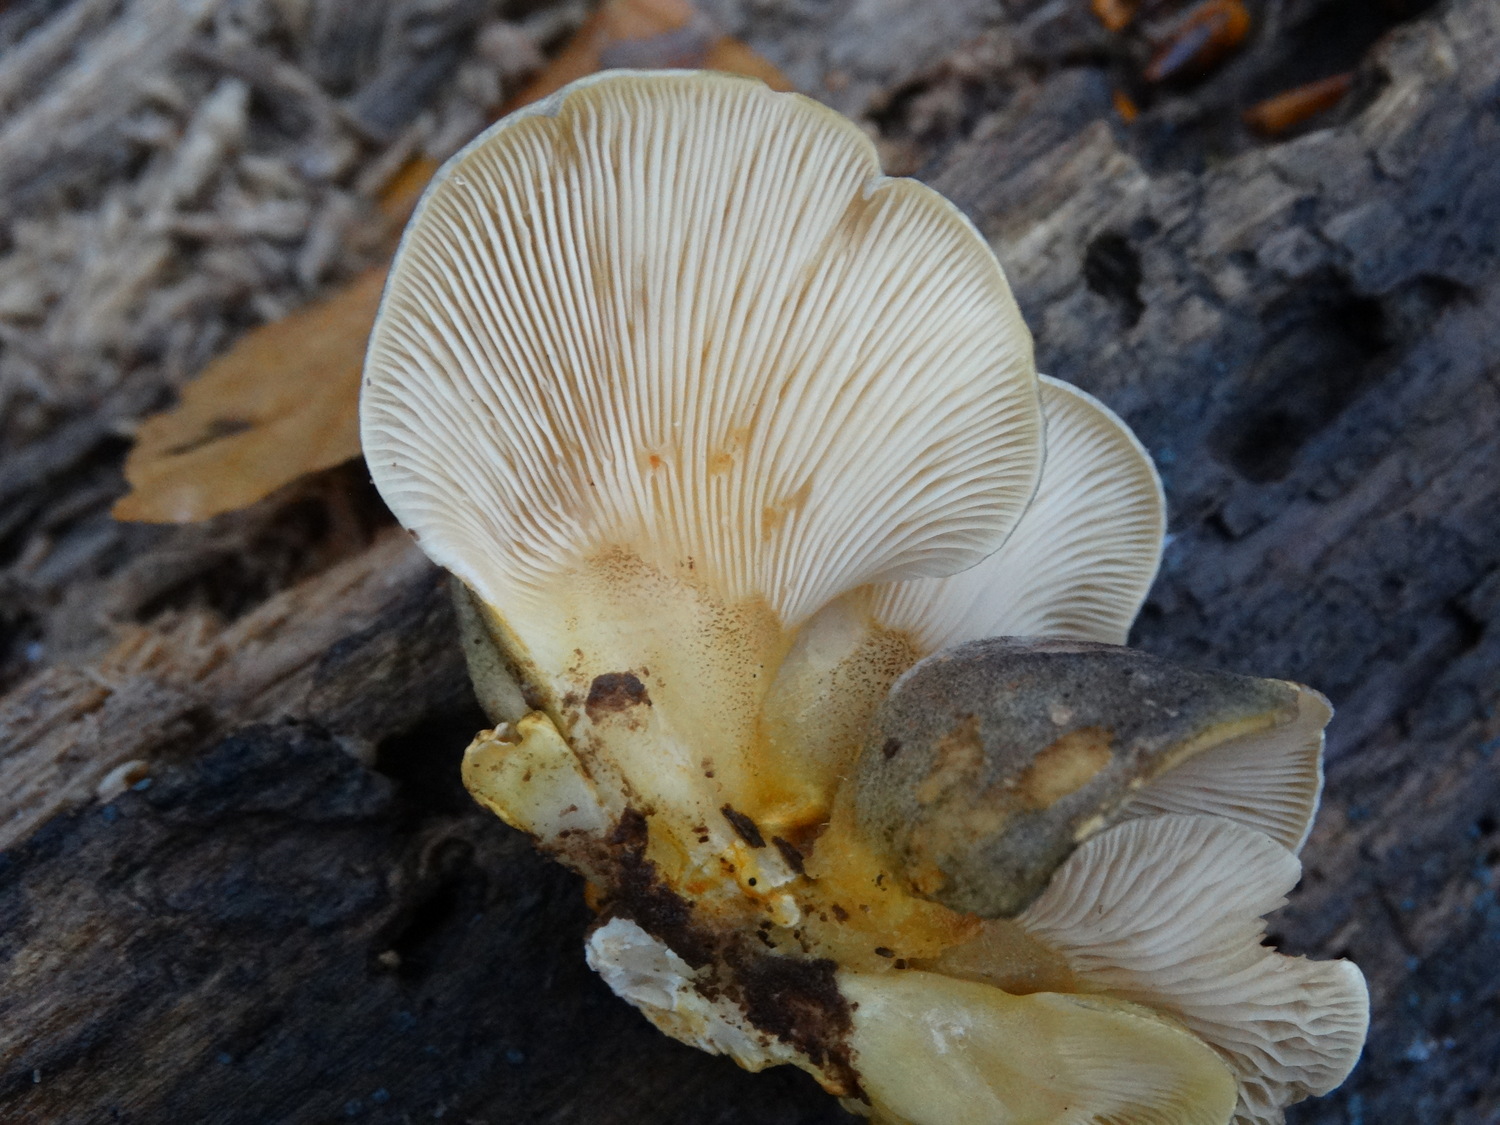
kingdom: Fungi
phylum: Basidiomycota
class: Agaricomycetes
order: Agaricales
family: Sarcomyxaceae
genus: Sarcomyxa
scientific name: Sarcomyxa serotina
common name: gummihat
